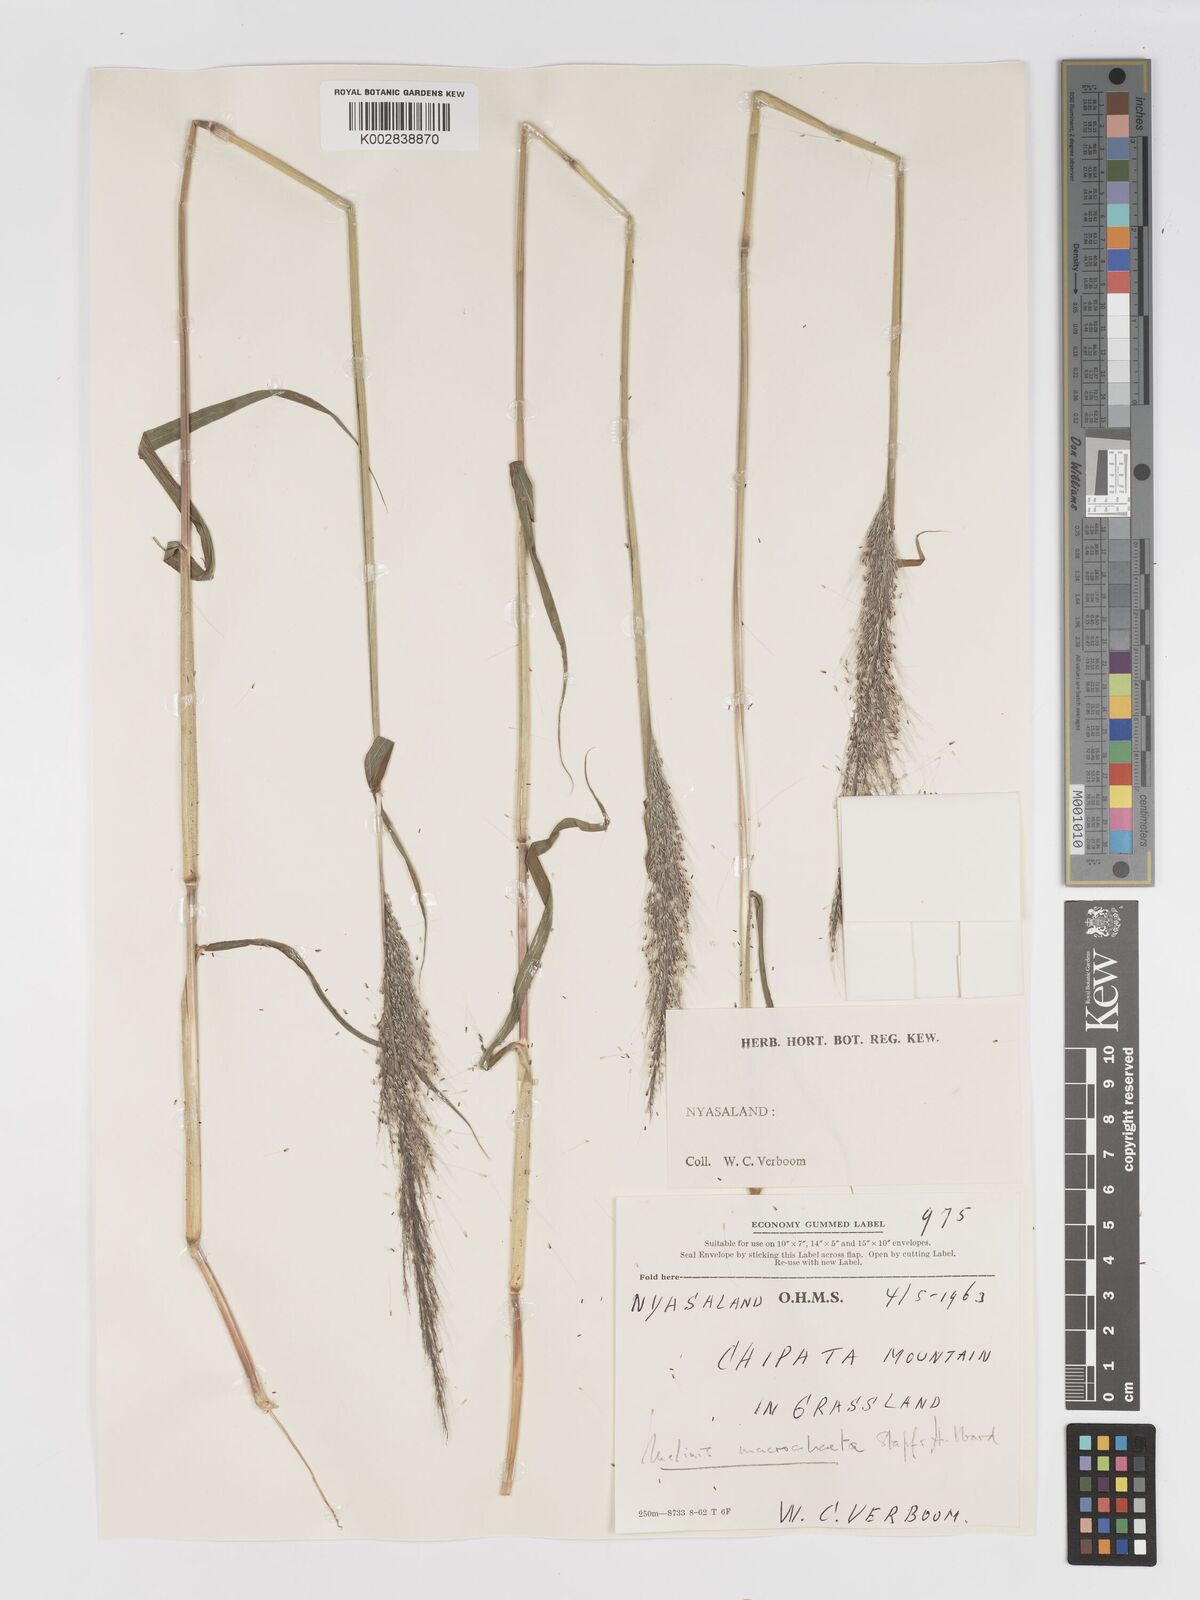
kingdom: Plantae
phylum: Tracheophyta
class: Liliopsida
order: Poales
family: Poaceae
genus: Melinis
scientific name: Melinis macrochaeta
